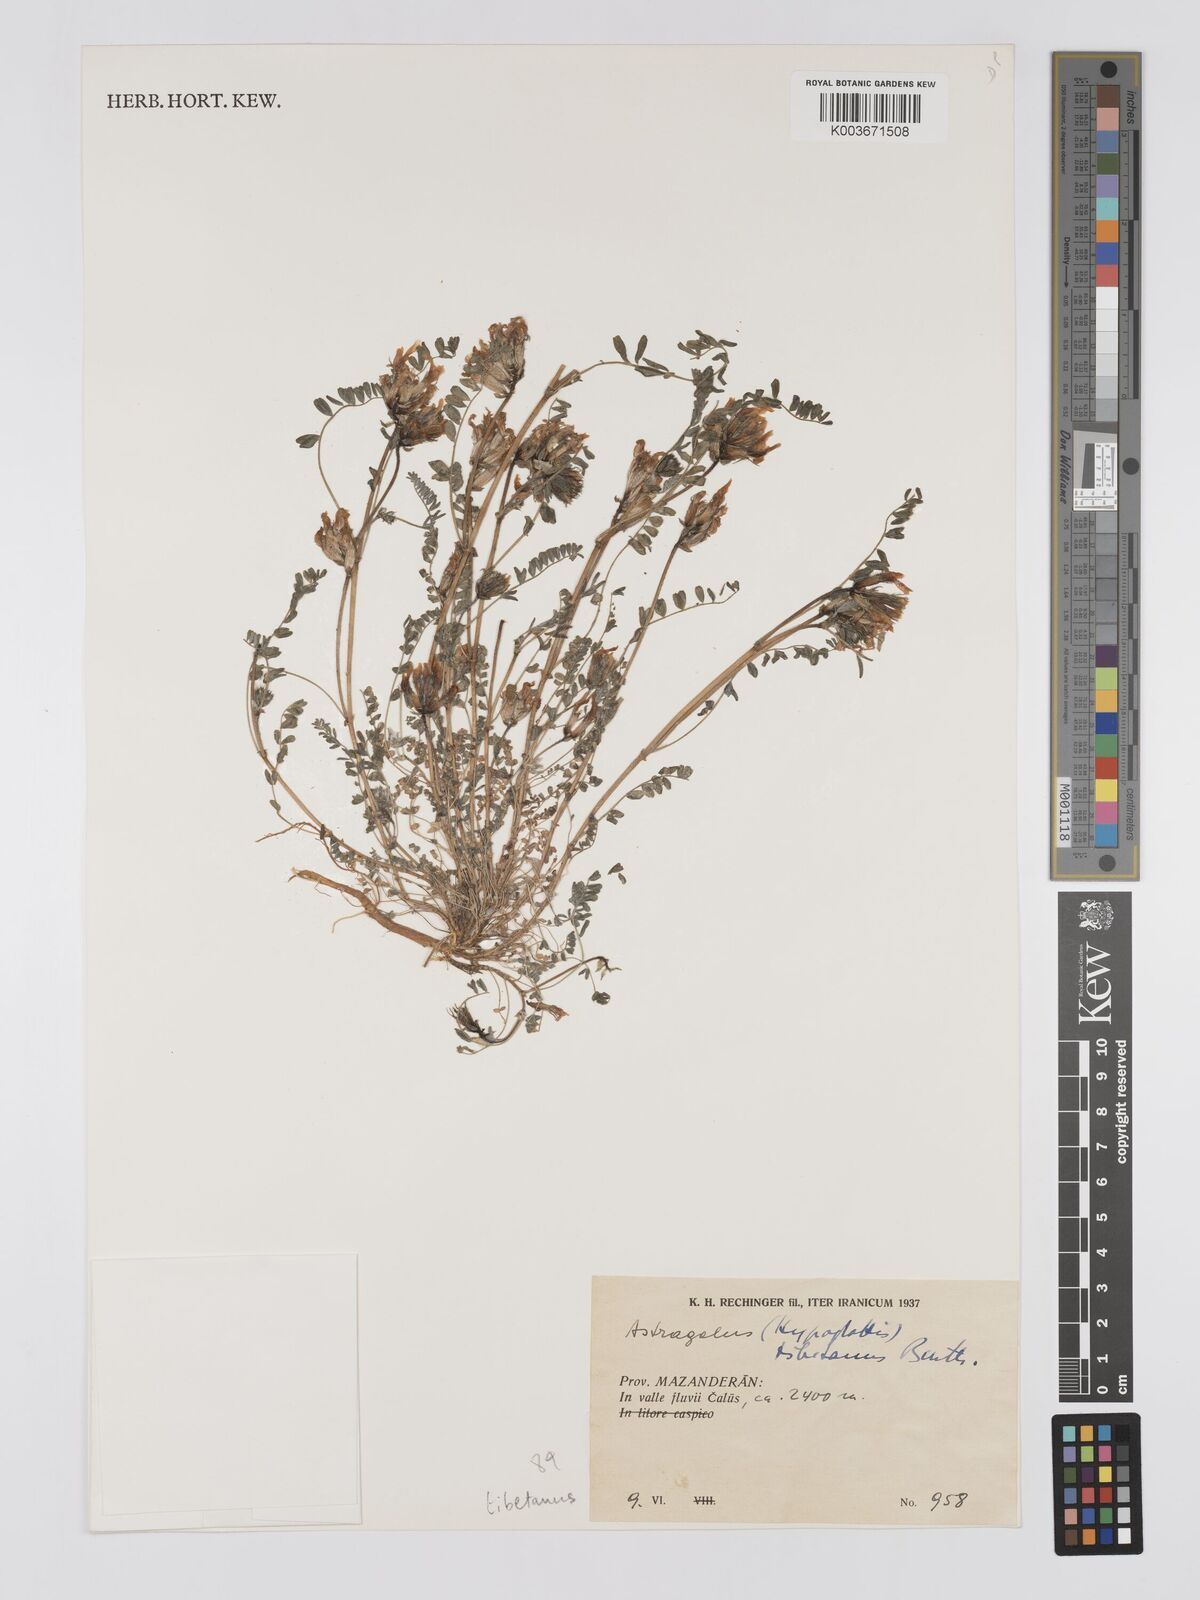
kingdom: Plantae
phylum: Tracheophyta
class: Magnoliopsida
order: Fabales
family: Fabaceae
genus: Astragalus
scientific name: Astragalus tibetanus
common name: Tibet milkvetch
